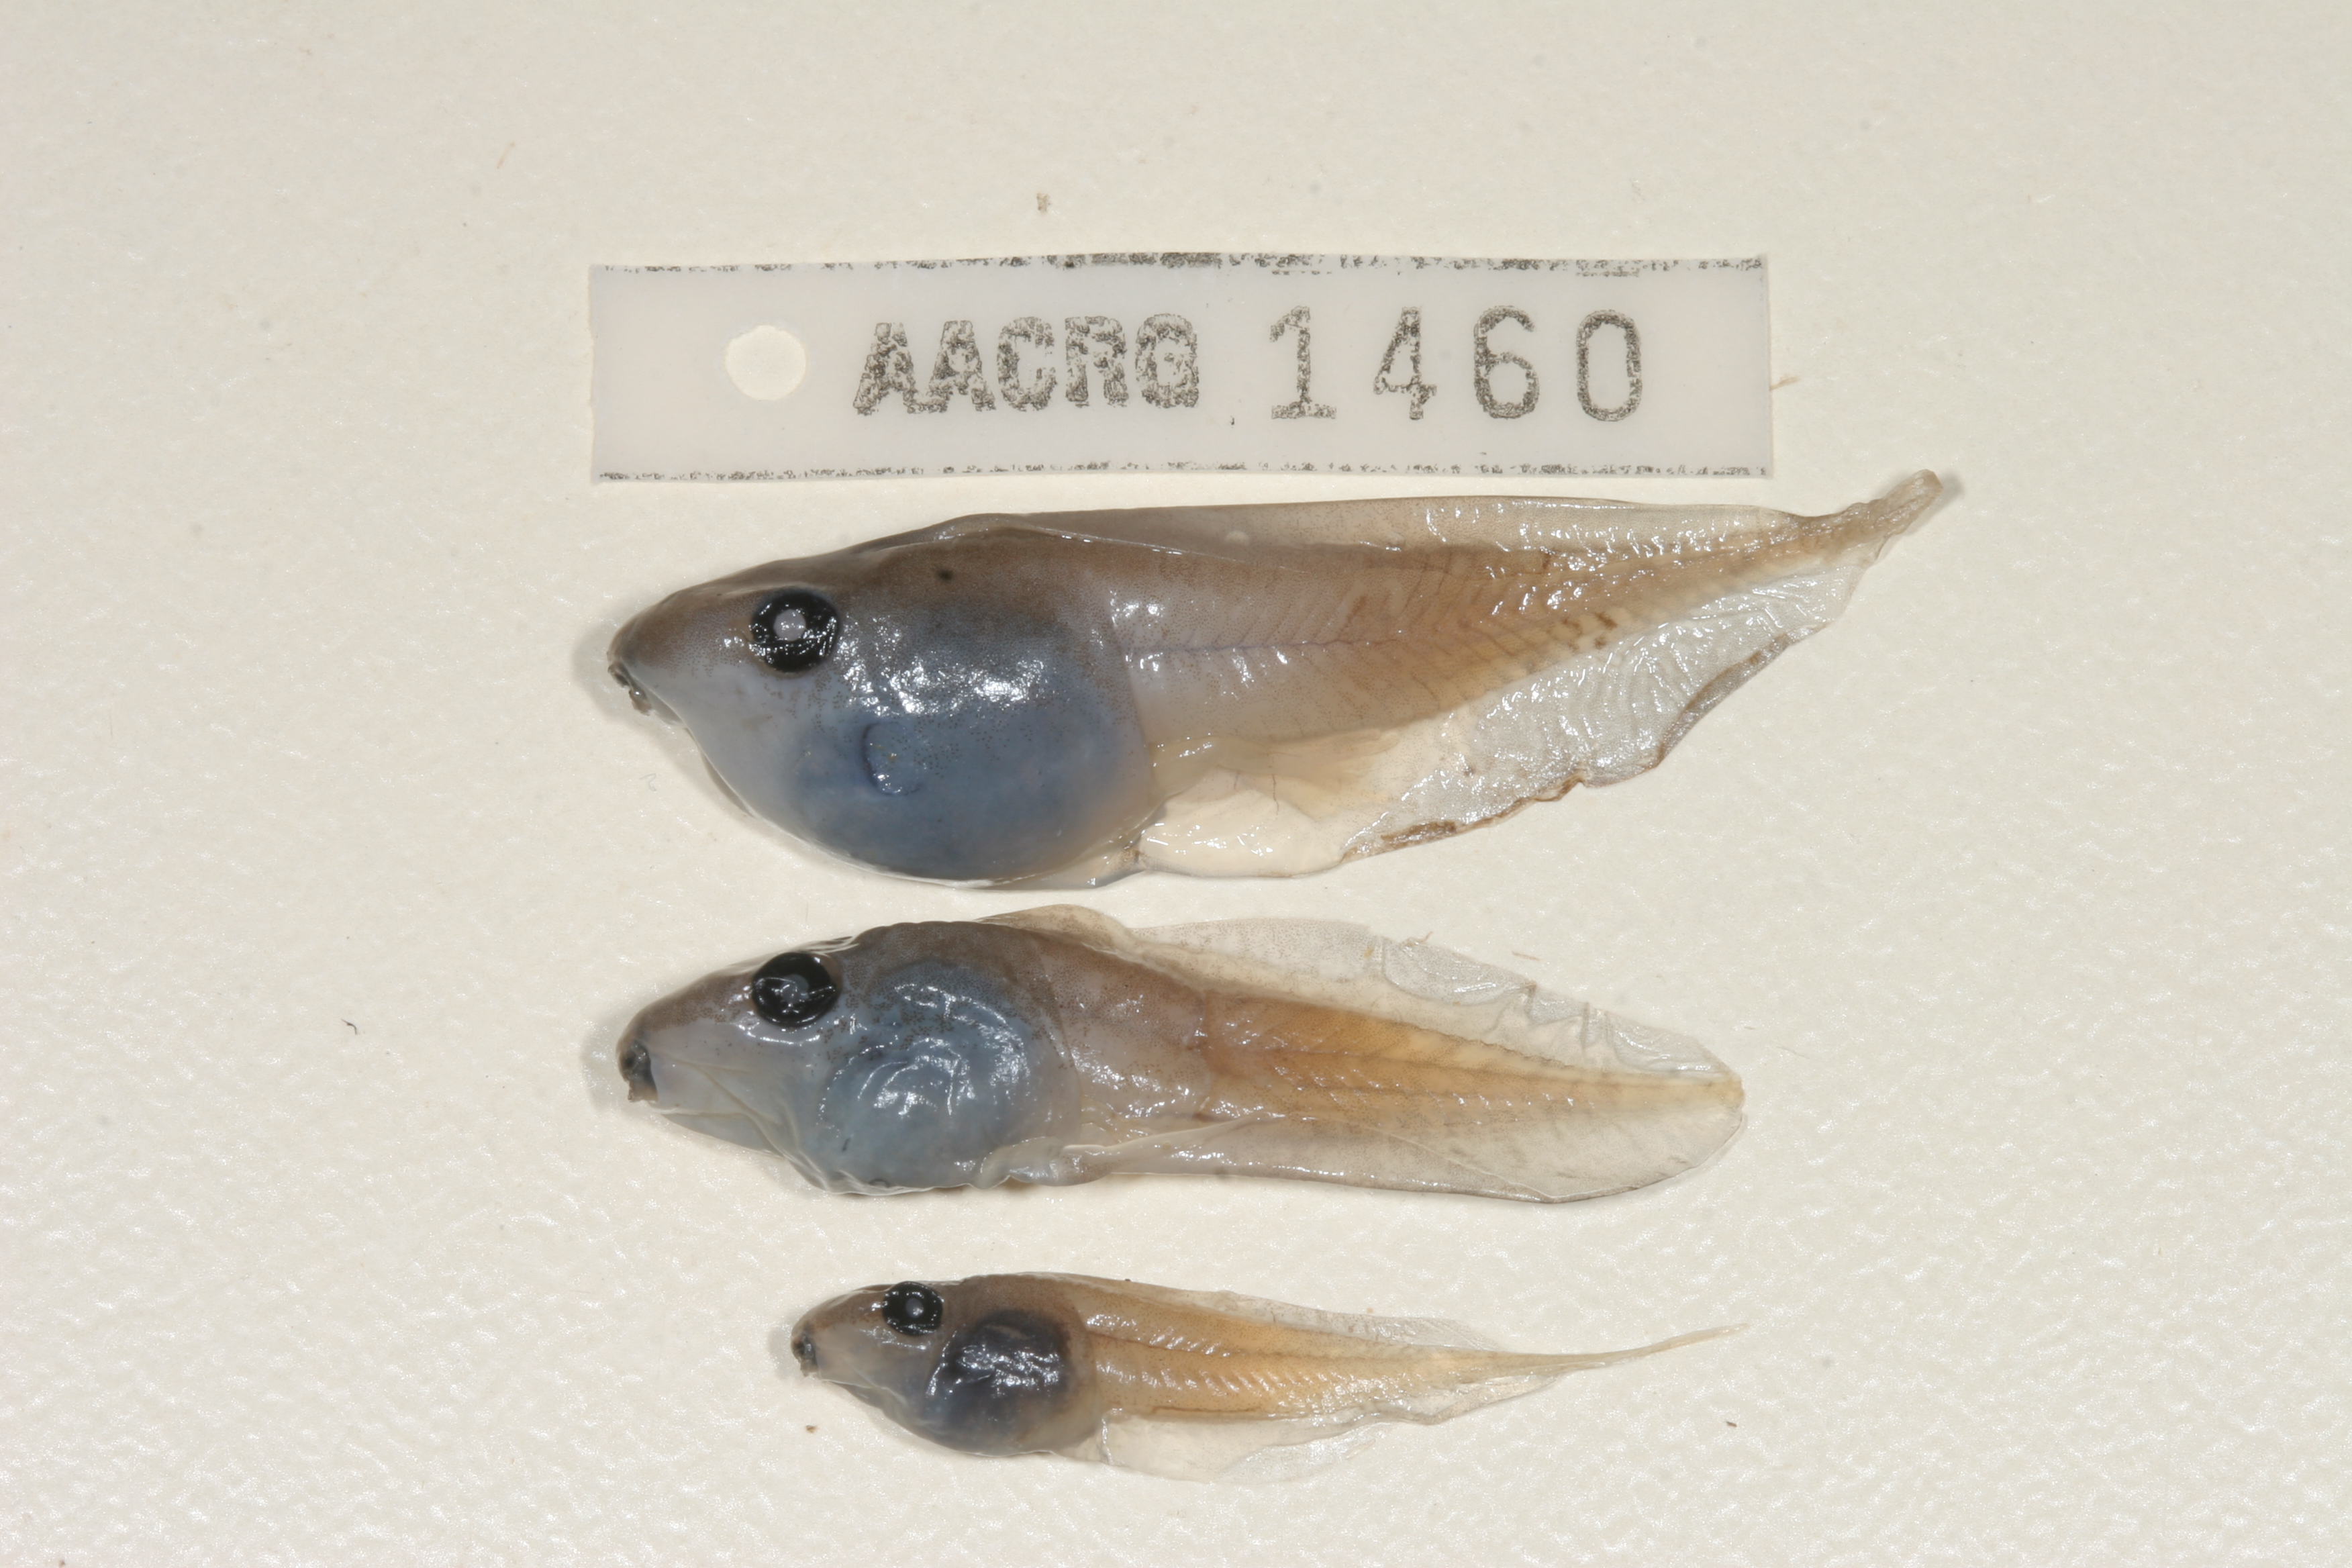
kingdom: Animalia
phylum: Chordata
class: Amphibia
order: Anura
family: Hyperoliidae
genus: Kassina
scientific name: Kassina senegalensis
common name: Senegal land frog
